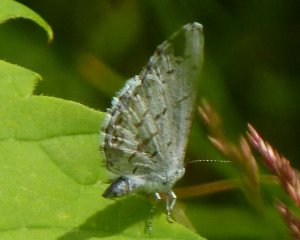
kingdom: Animalia
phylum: Arthropoda
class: Insecta
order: Lepidoptera
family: Lycaenidae
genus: Cyaniris
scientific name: Cyaniris neglecta
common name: Summer Azure
